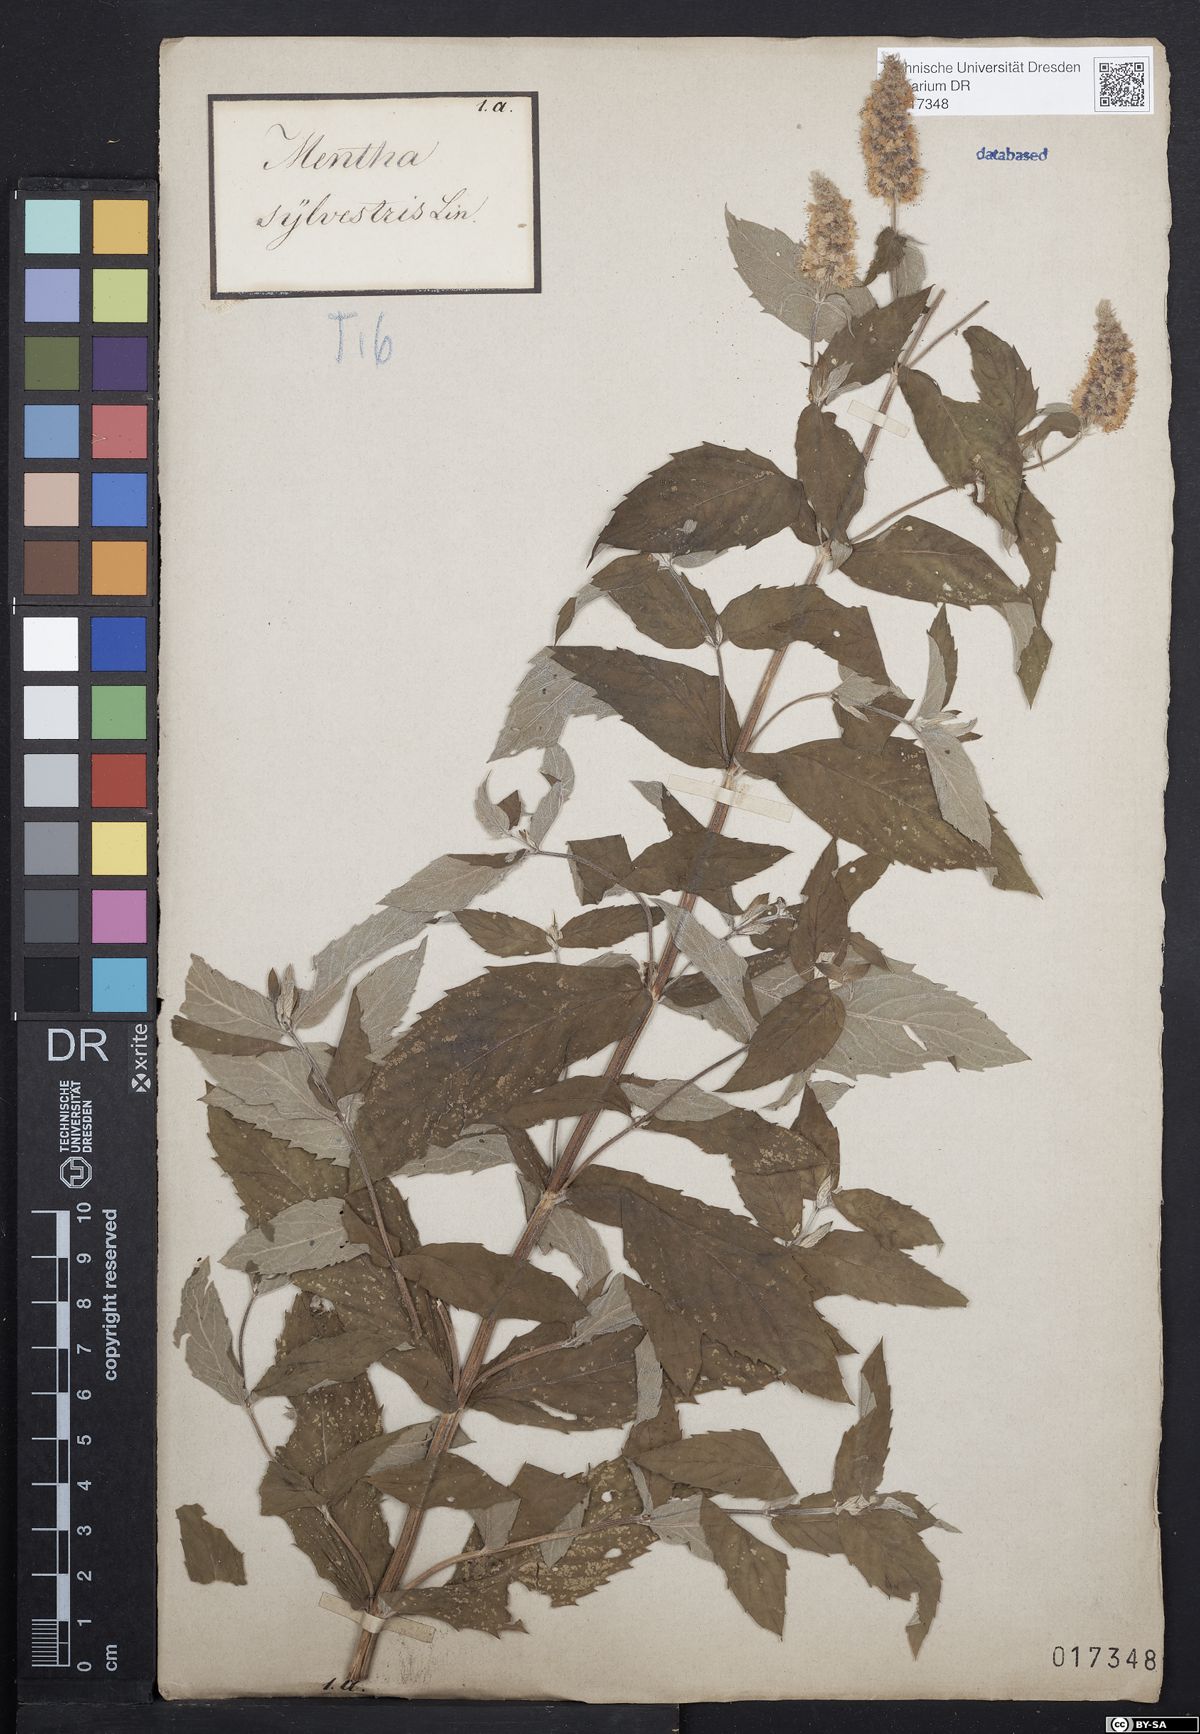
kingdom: Plantae
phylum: Tracheophyta
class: Magnoliopsida
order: Lamiales
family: Lamiaceae
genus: Mentha
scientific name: Mentha longifolia
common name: Horse mint
